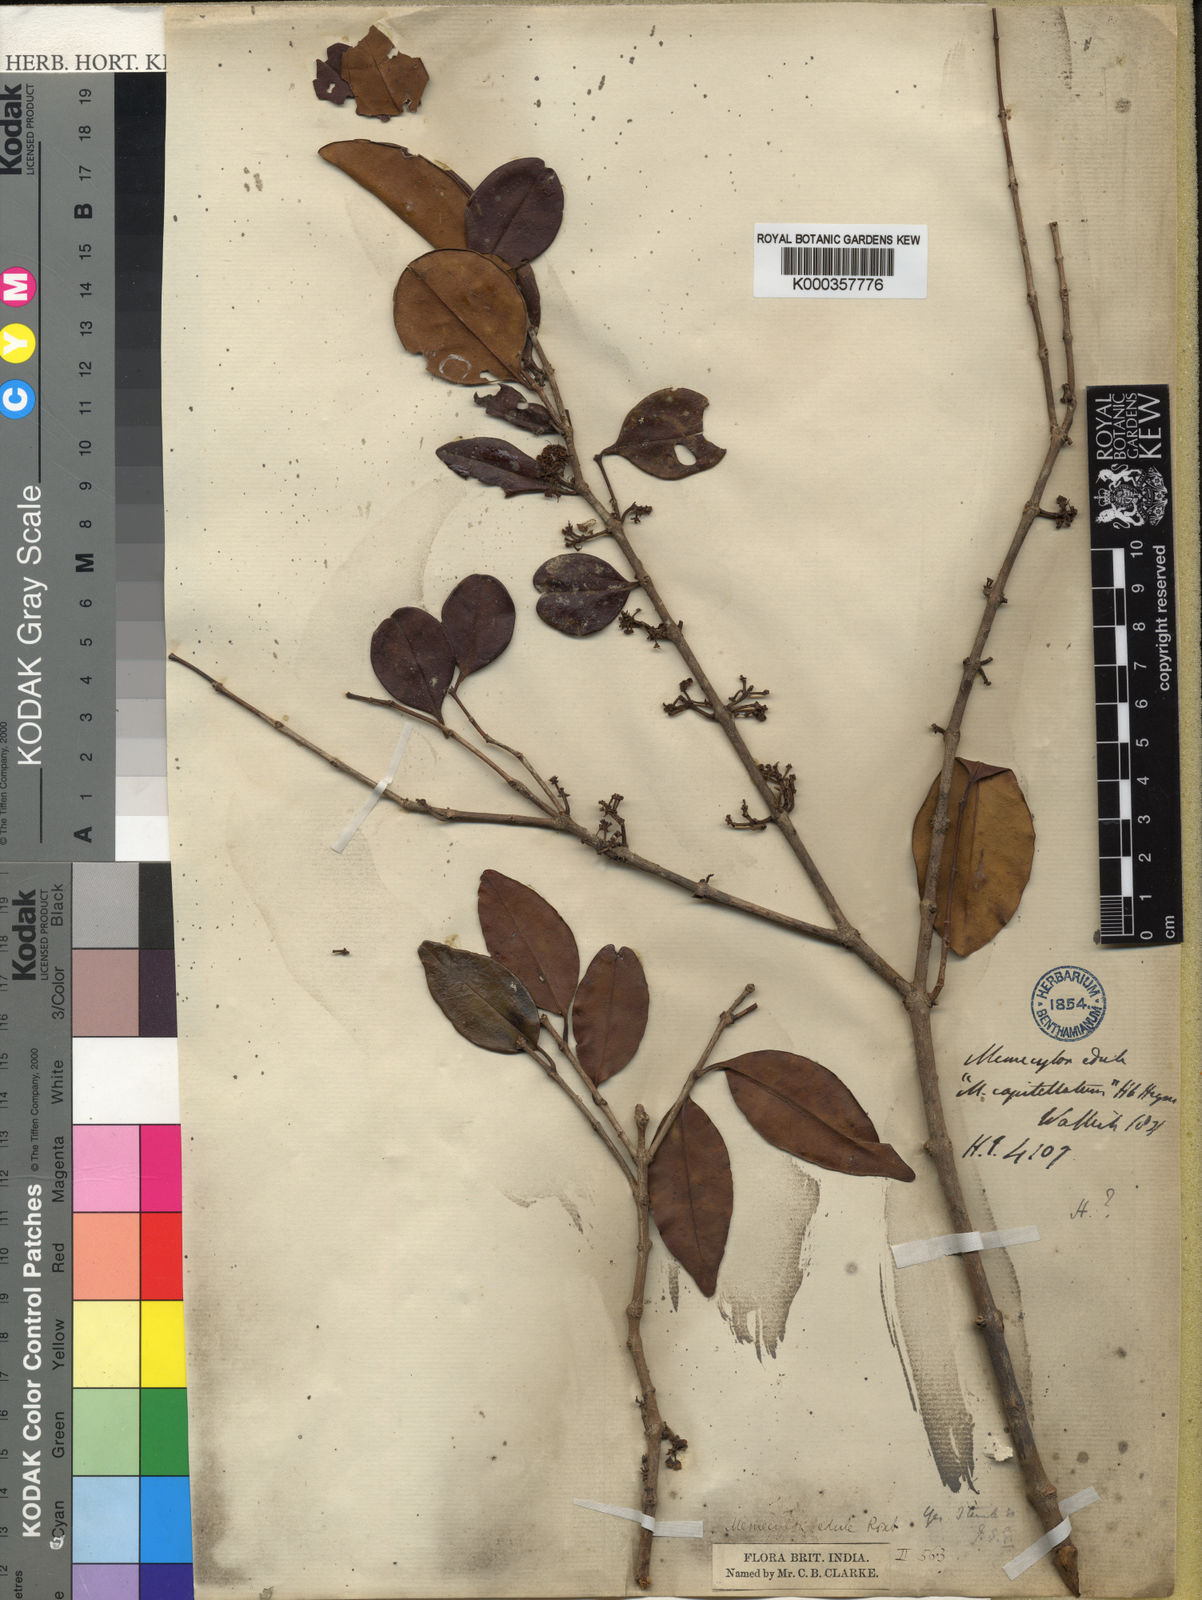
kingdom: Plantae
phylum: Tracheophyta
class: Magnoliopsida
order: Myrtales
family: Melastomataceae
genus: Memecylon
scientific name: Memecylon edule
